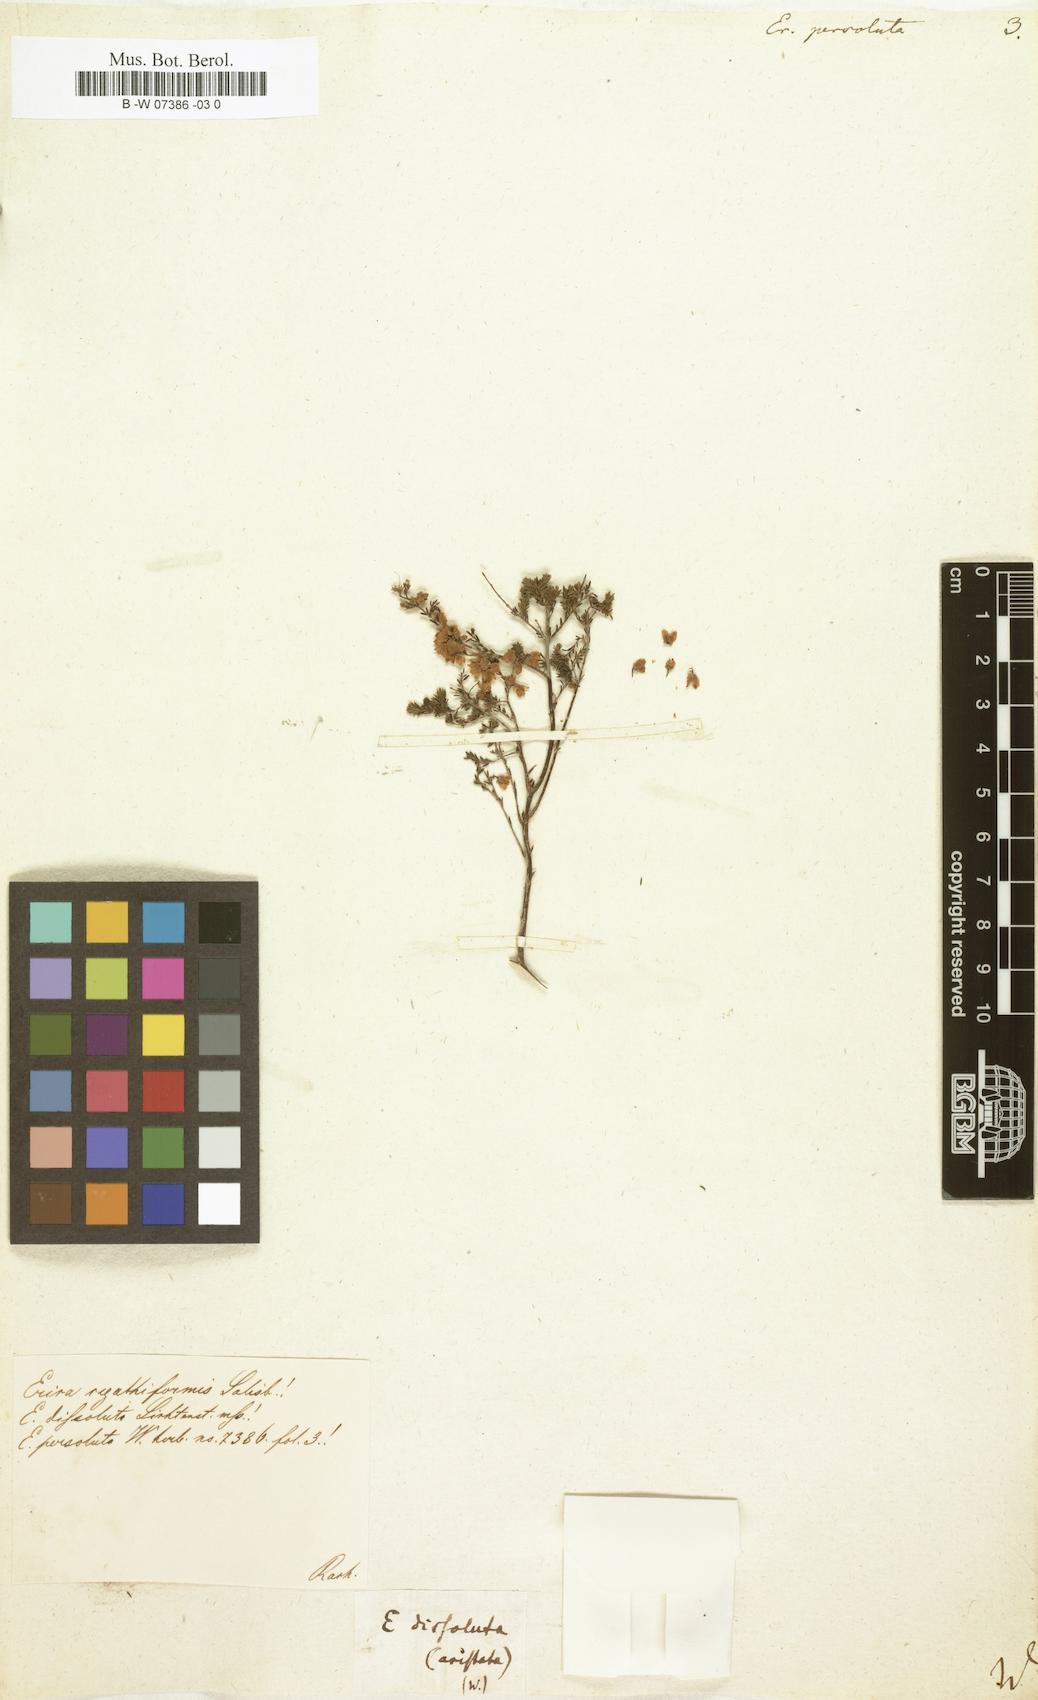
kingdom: Plantae
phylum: Tracheophyta
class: Magnoliopsida
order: Ericales
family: Ericaceae
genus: Erica
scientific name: Erica subdivaricata
